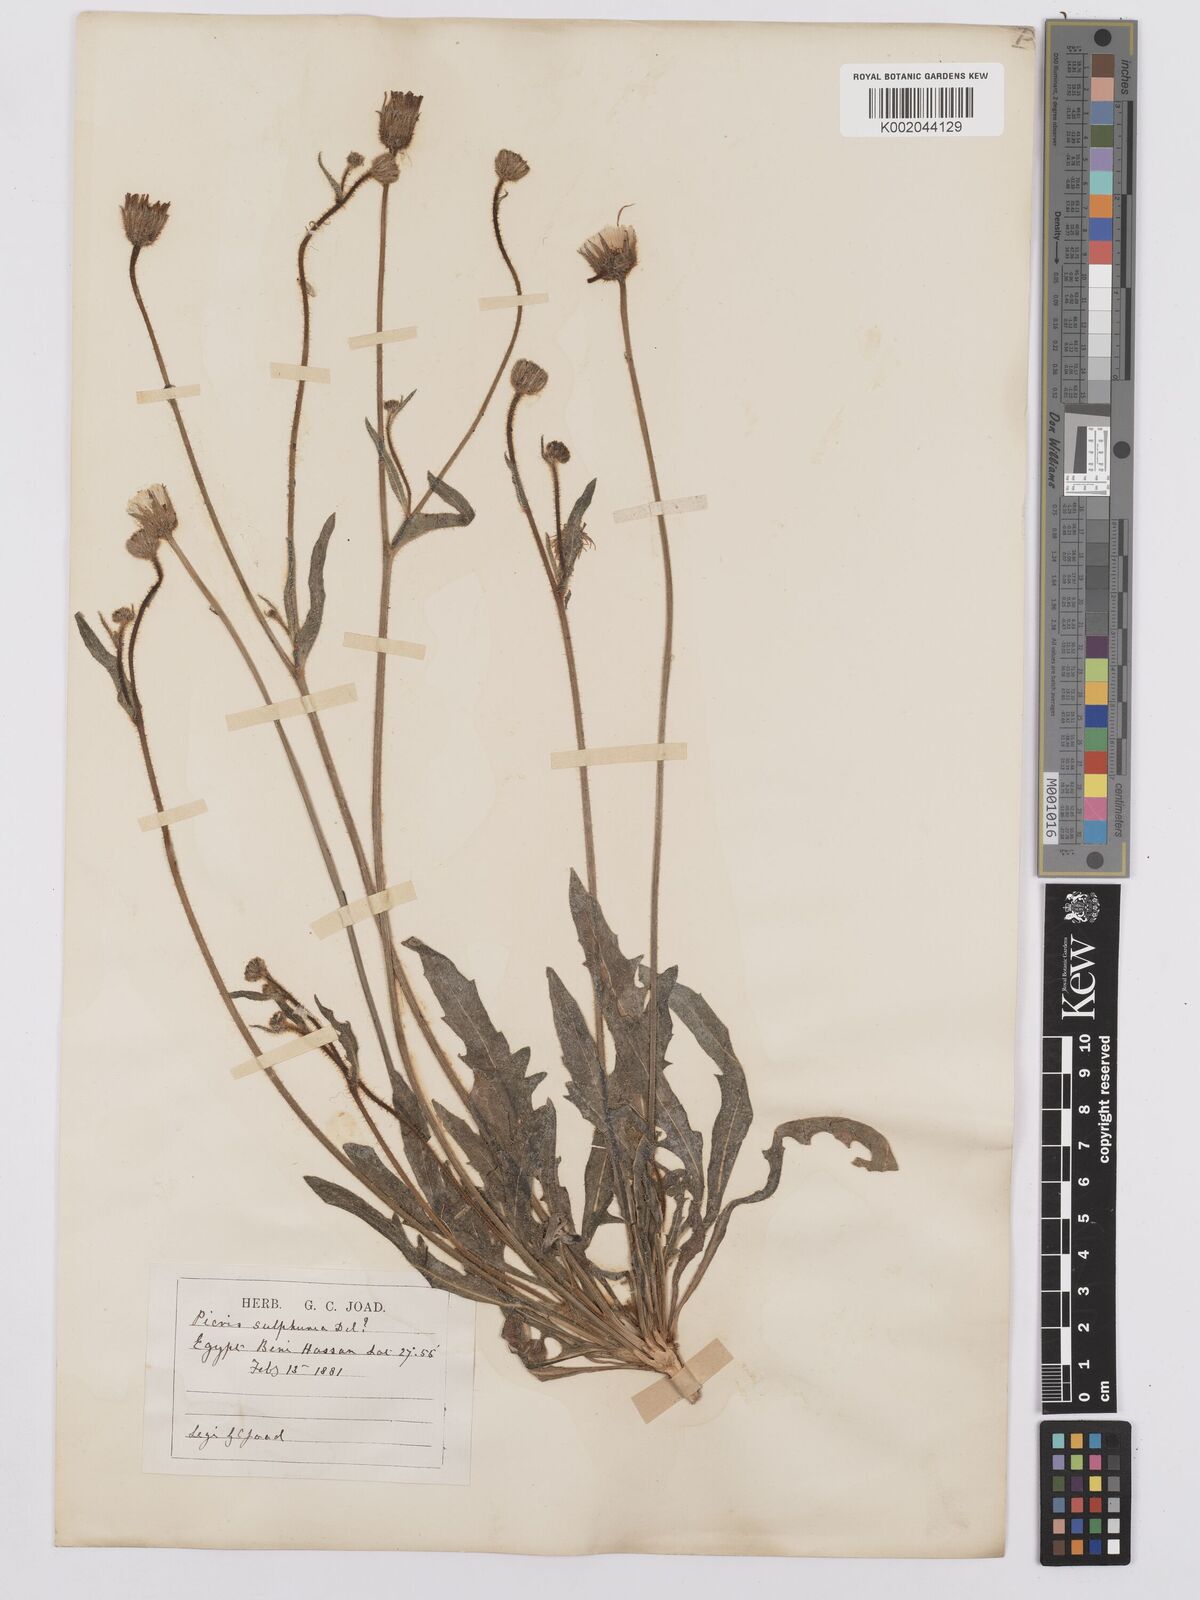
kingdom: Plantae
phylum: Tracheophyta
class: Magnoliopsida
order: Asterales
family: Asteraceae
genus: Picris
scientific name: Picris sulphurea
